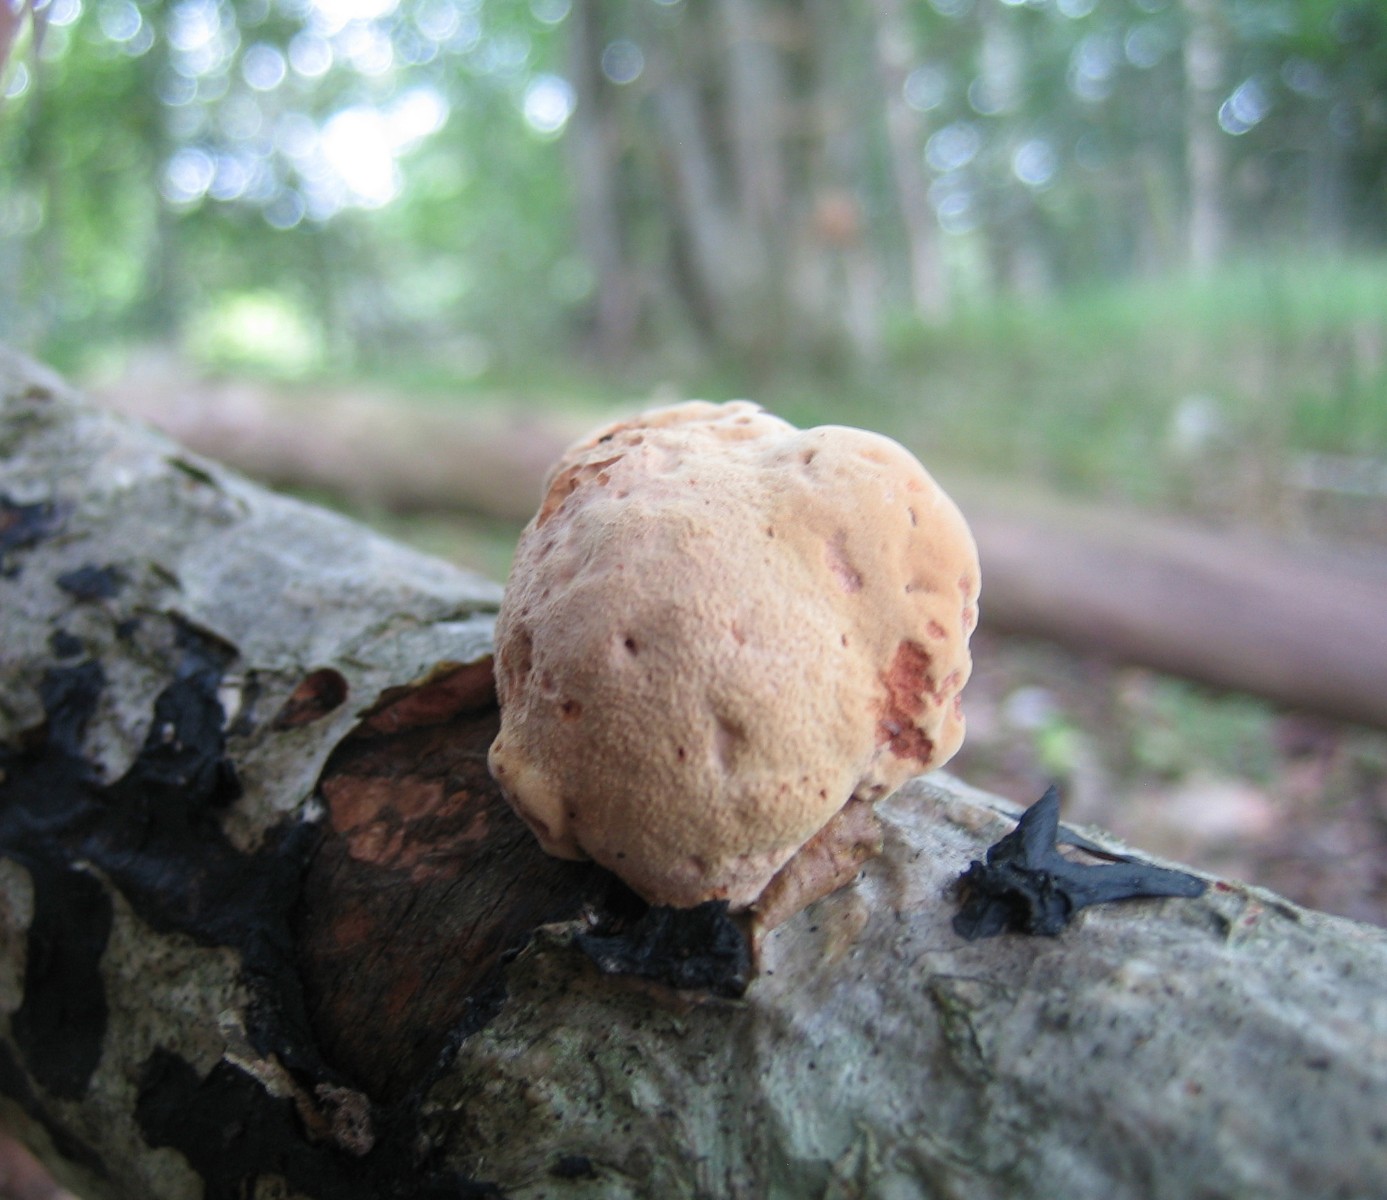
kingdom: Fungi
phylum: Basidiomycota
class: Agaricomycetes
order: Polyporales
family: Phanerochaetaceae
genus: Hapalopilus
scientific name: Hapalopilus rutilans
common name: rødlig okkerporesvamp
